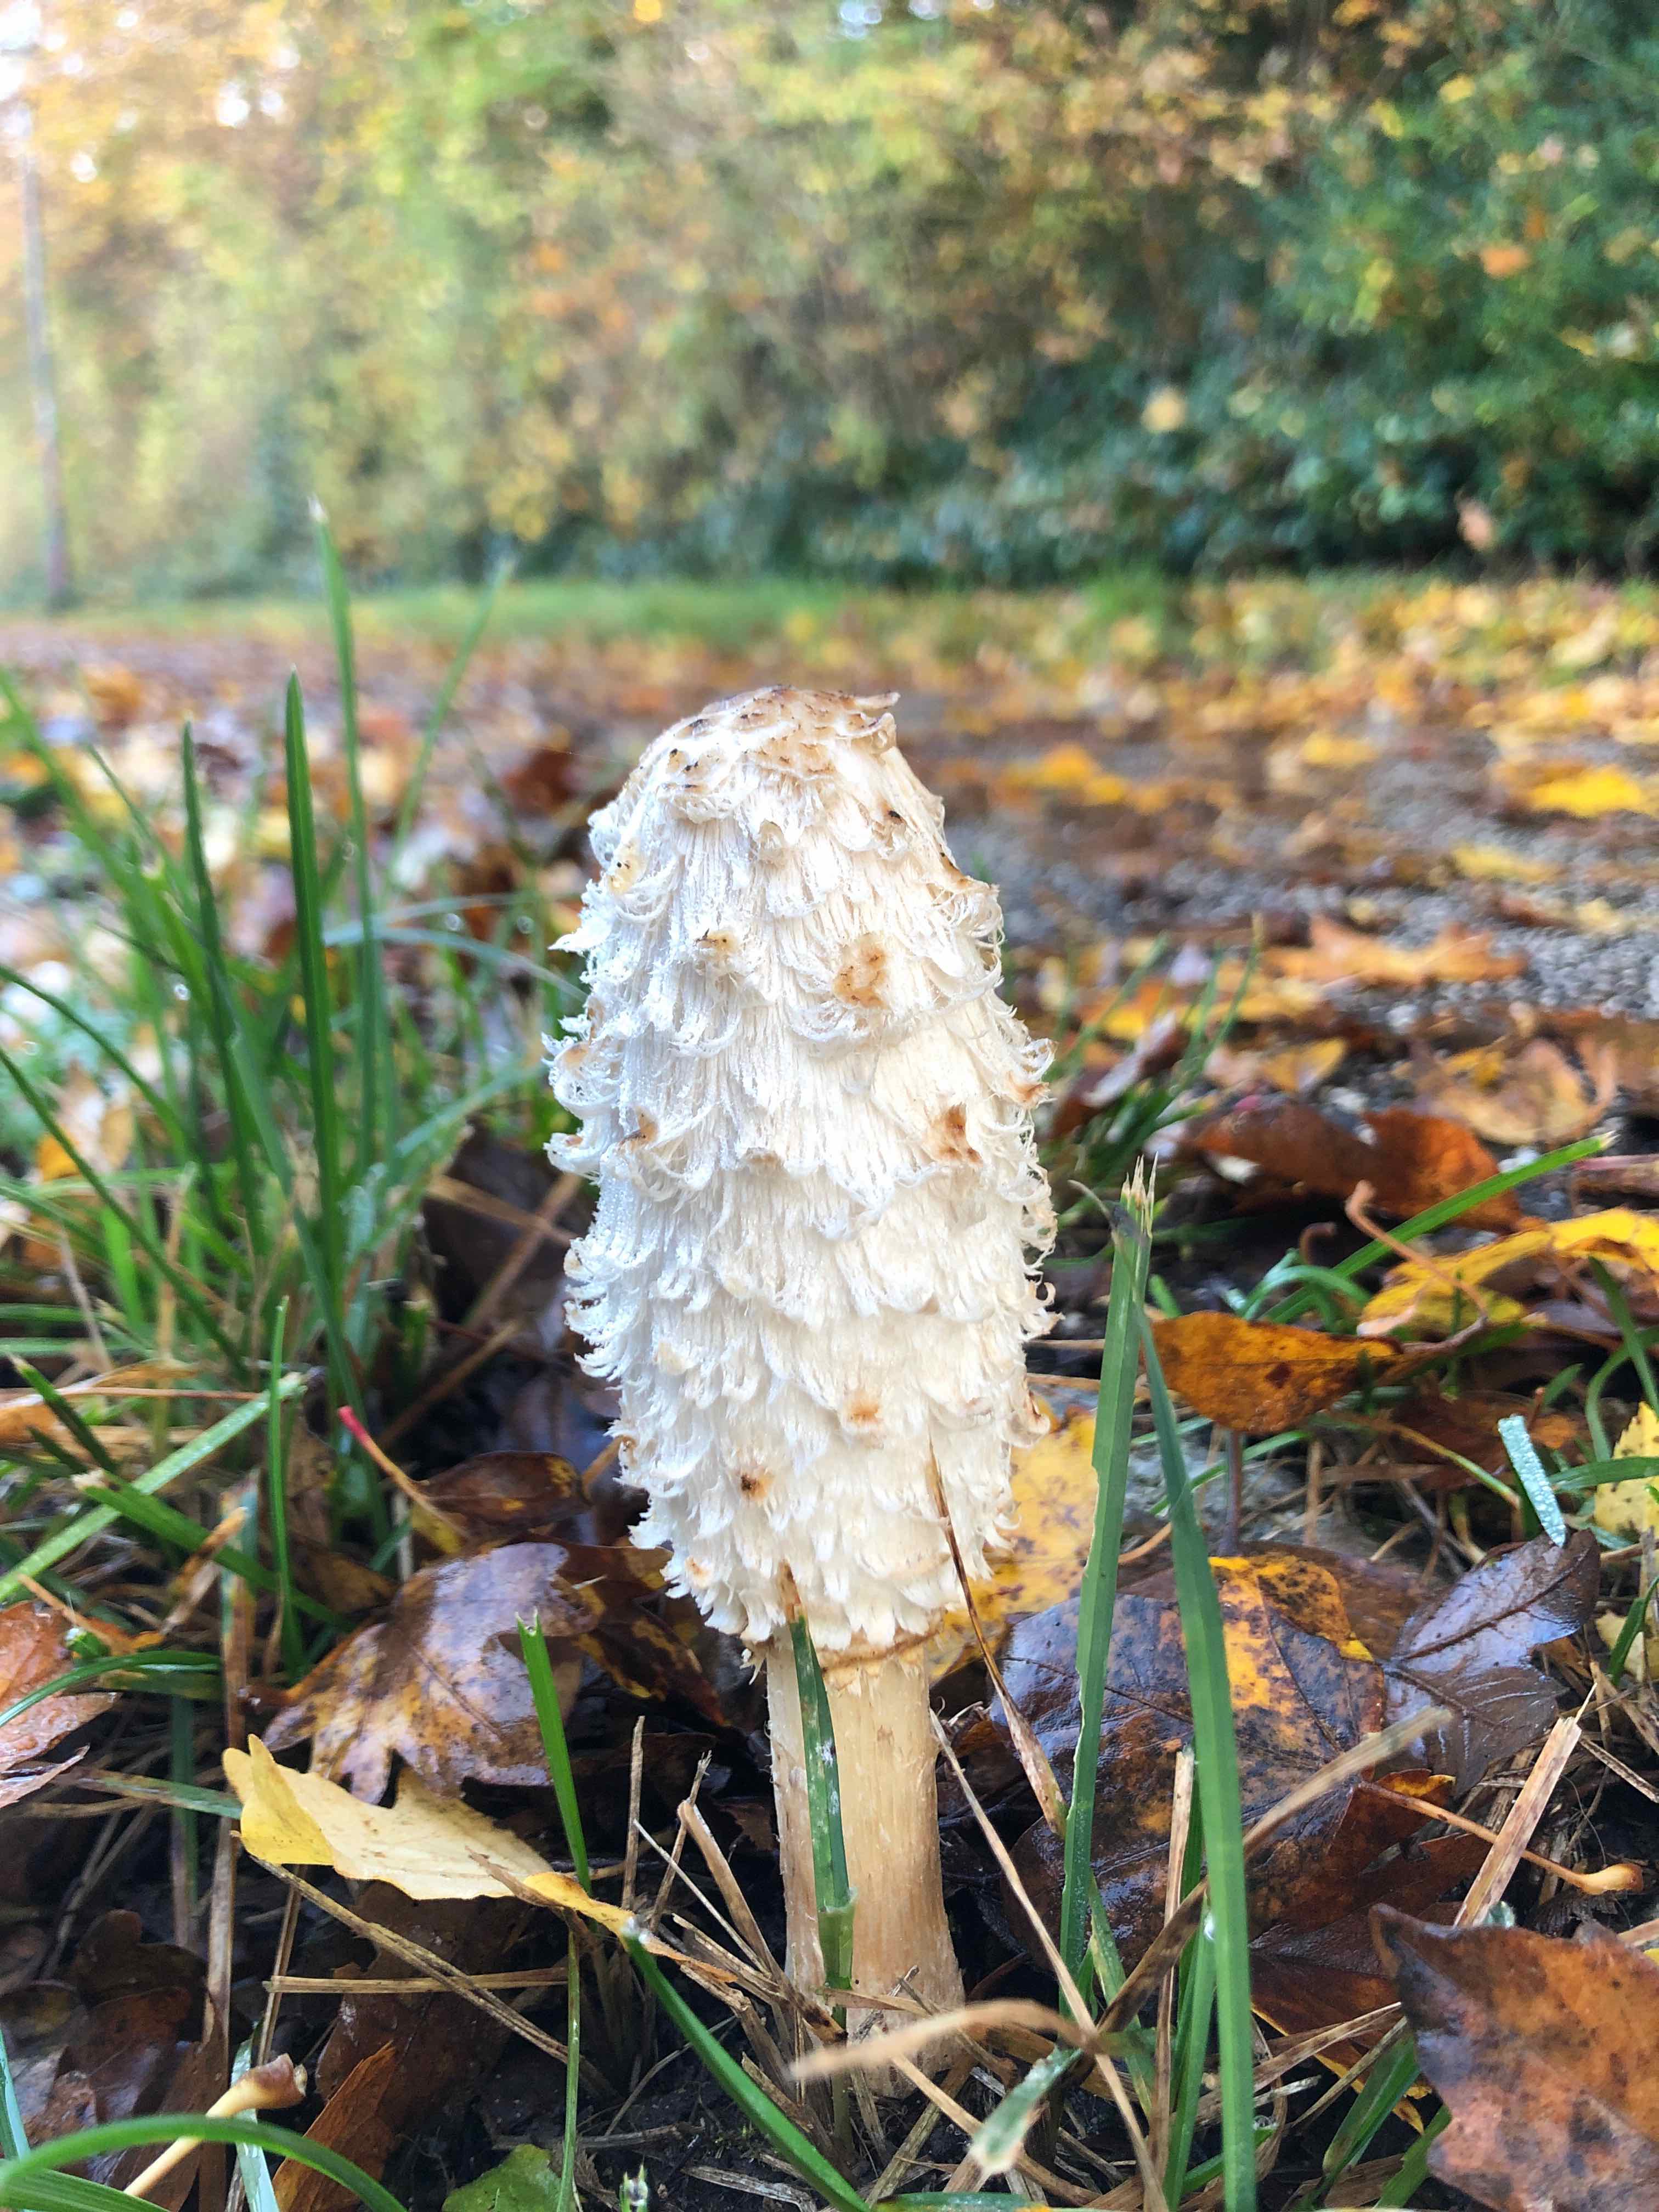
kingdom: Fungi
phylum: Basidiomycota
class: Agaricomycetes
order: Agaricales
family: Agaricaceae
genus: Coprinus
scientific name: Coprinus comatus
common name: stor parykhat
